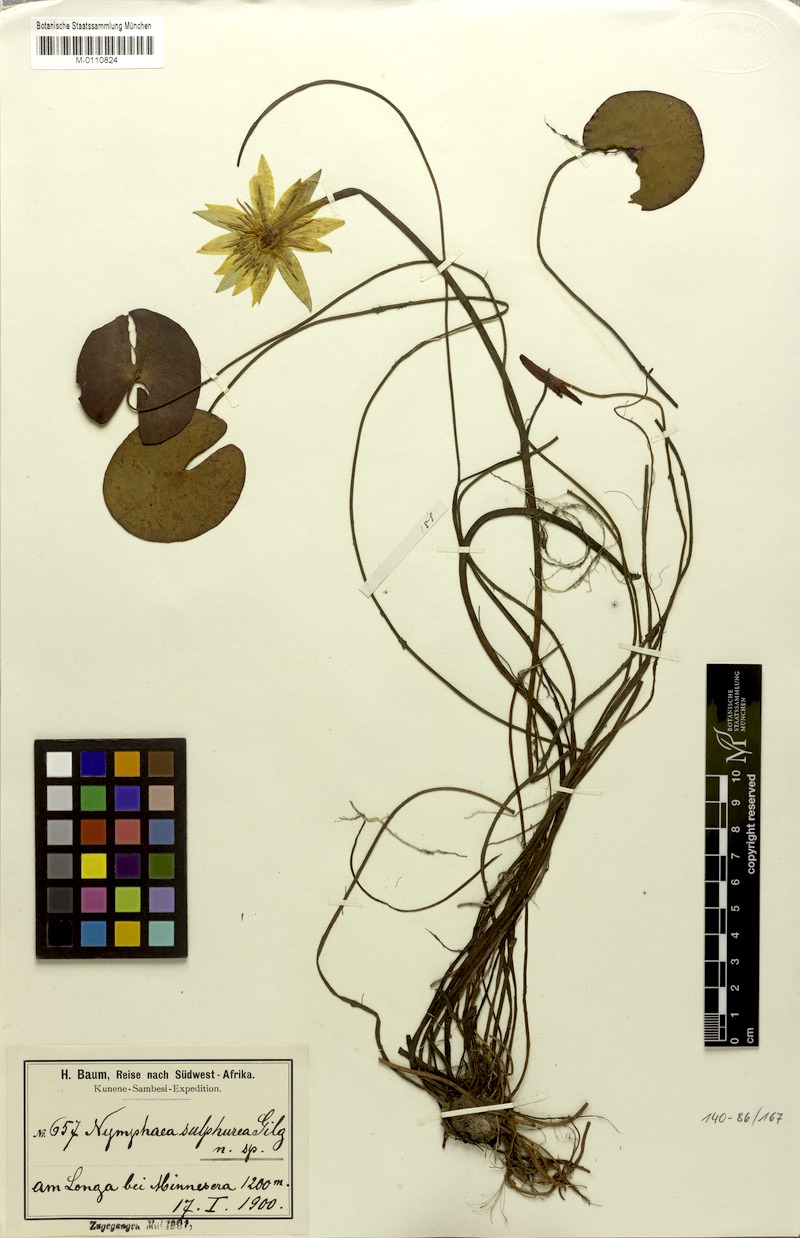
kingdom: Plantae
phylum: Tracheophyta
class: Magnoliopsida
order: Nymphaeales
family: Nymphaeaceae
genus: Nymphaea
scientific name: Nymphaea sulphurea
